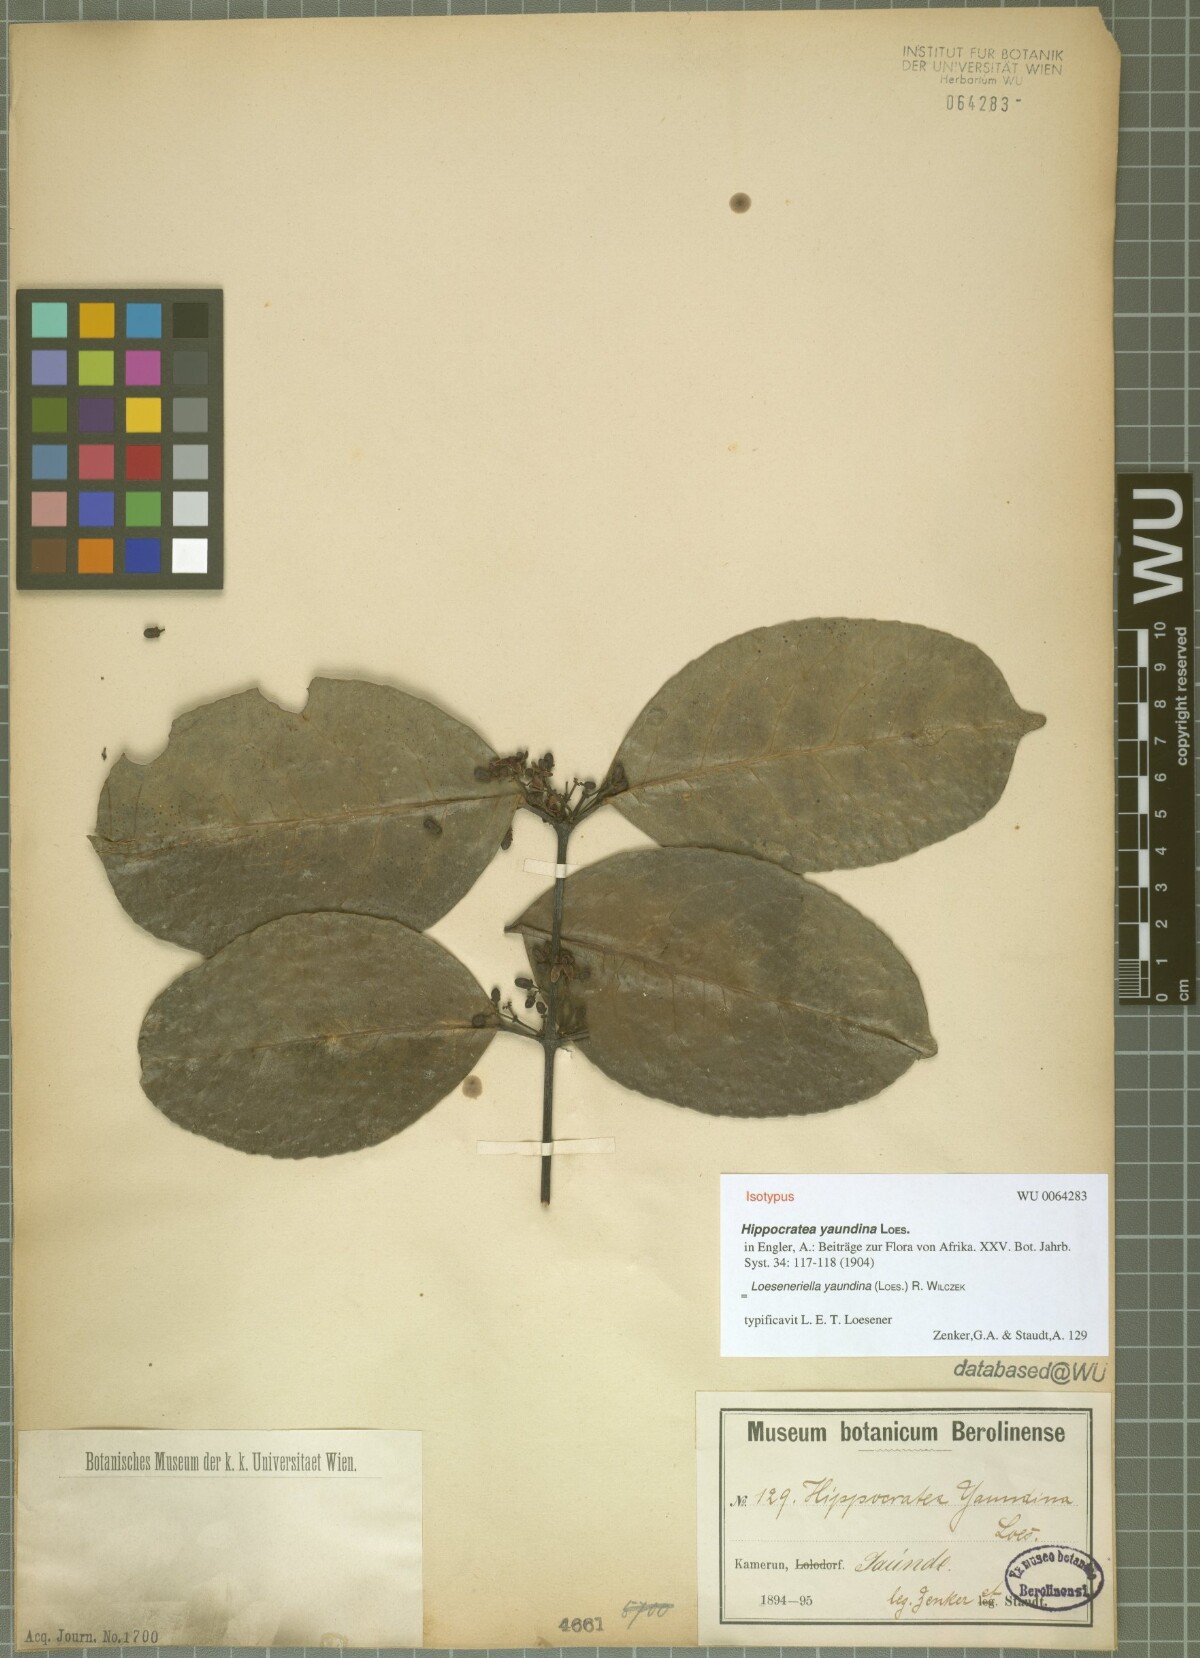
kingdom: Plantae
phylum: Tracheophyta
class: Magnoliopsida
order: Celastrales
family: Celastraceae
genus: Loeseneriella
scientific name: Loeseneriella yaundina
